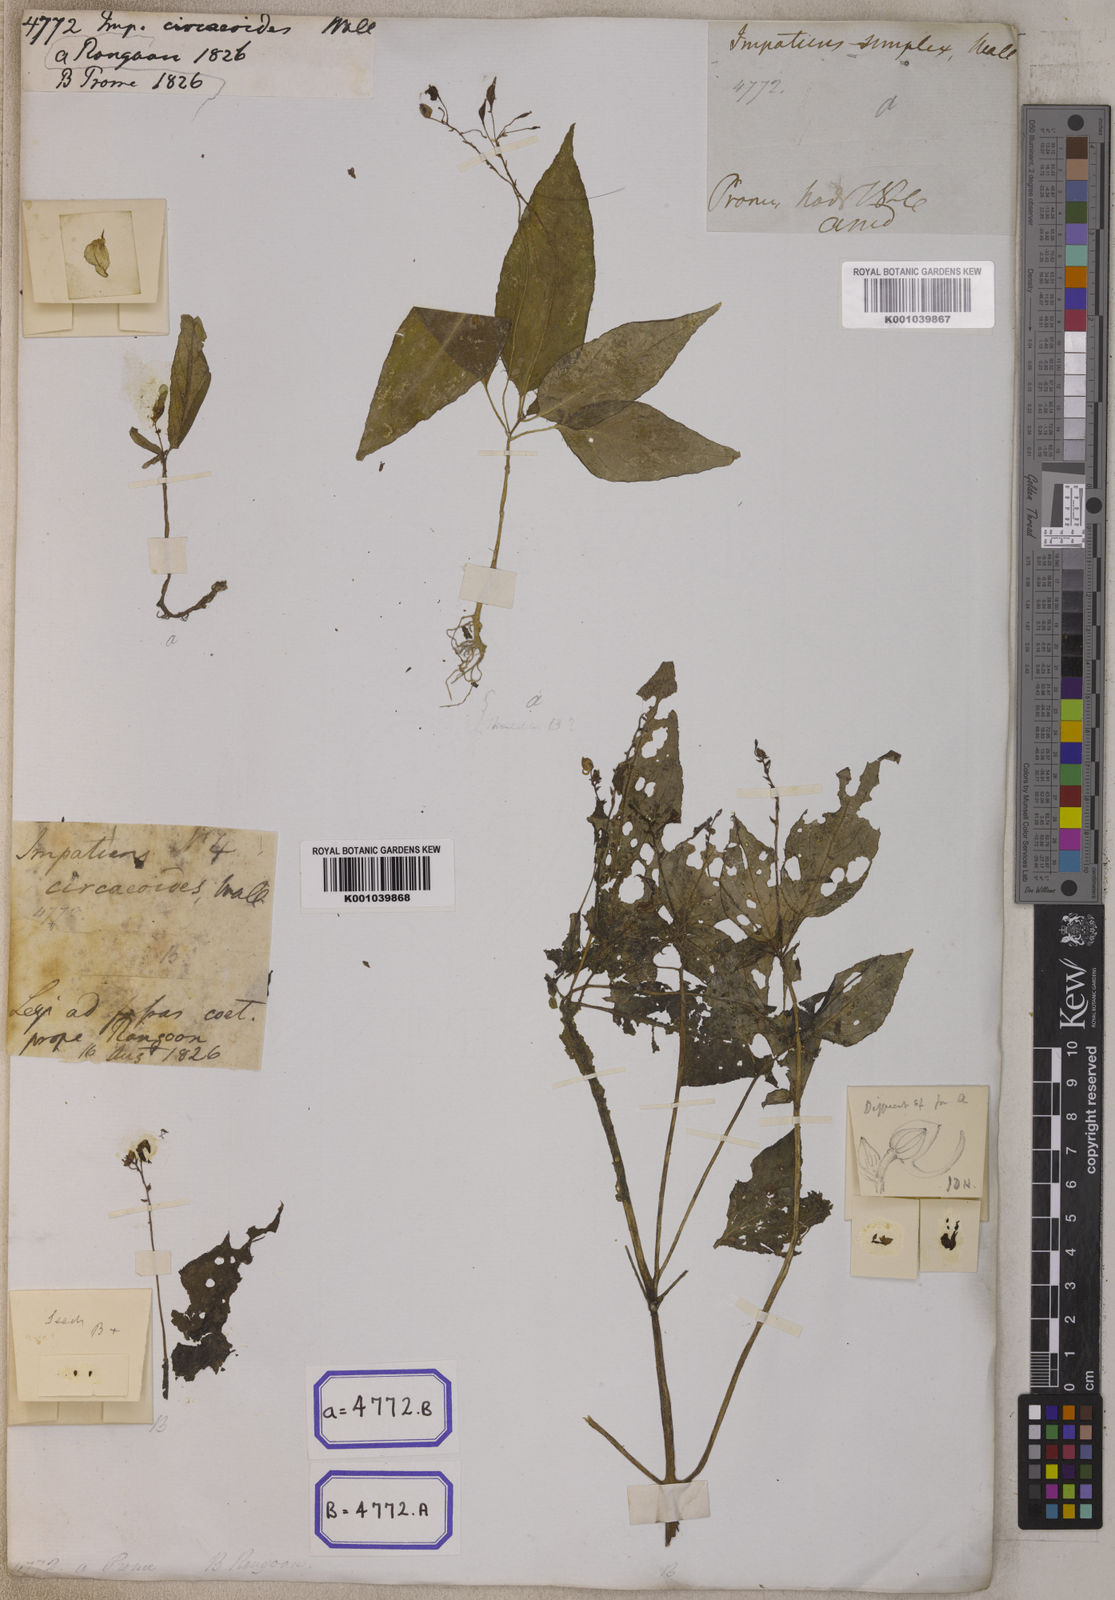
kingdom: Plantae
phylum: Tracheophyta
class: Magnoliopsida
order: Ericales
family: Balsaminaceae
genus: Impatiens
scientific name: Impatiens
